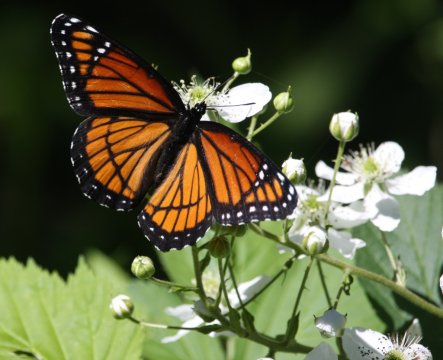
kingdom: Animalia
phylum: Arthropoda
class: Insecta
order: Lepidoptera
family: Nymphalidae
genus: Limenitis
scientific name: Limenitis archippus
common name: Viceroy
